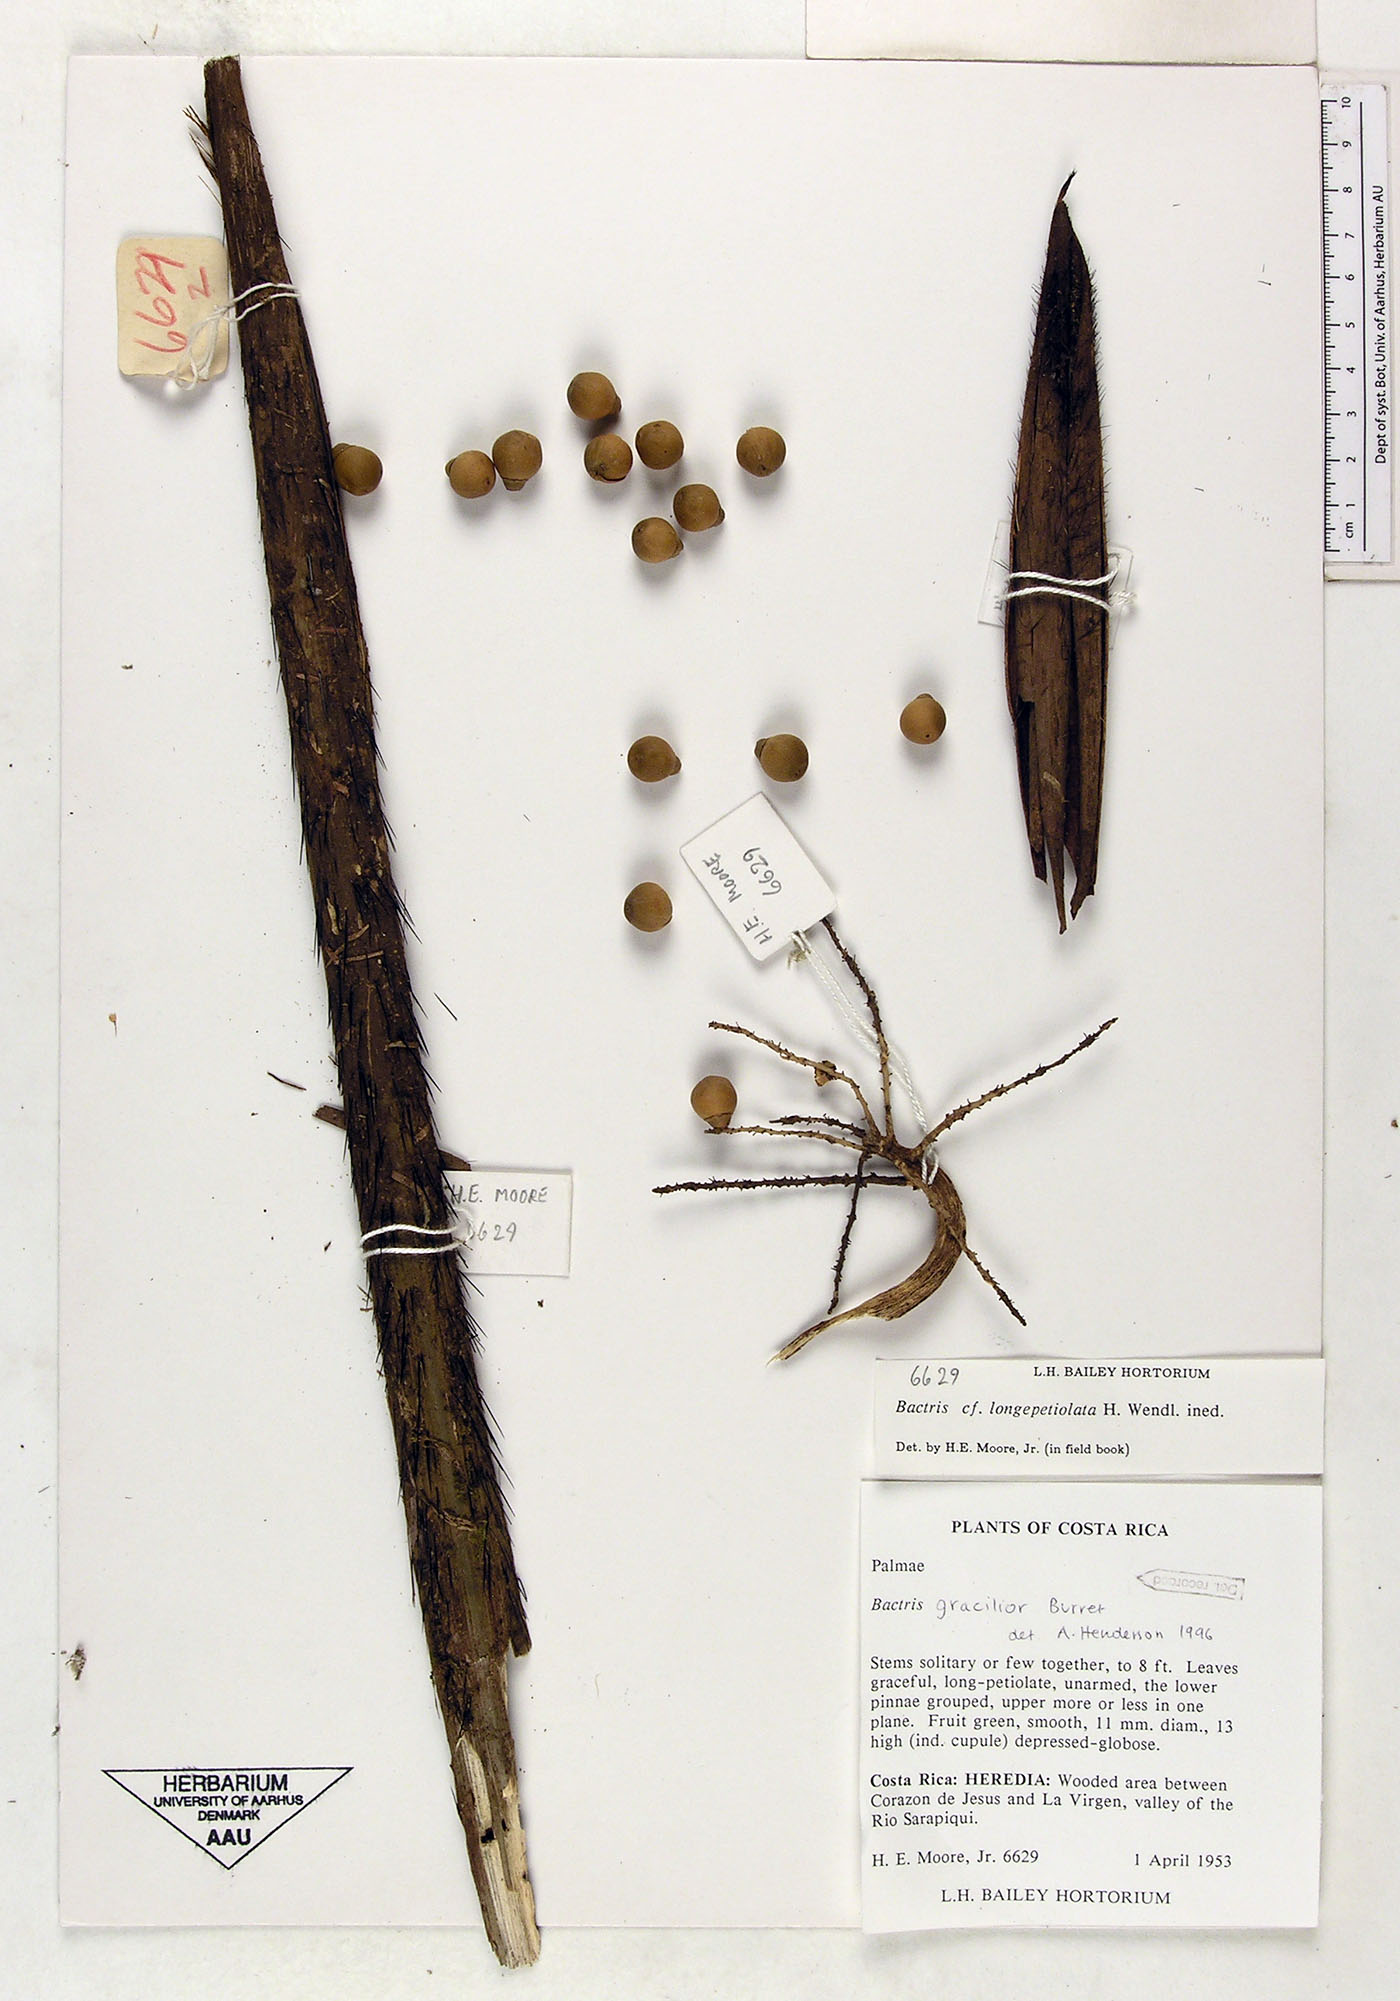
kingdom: Plantae
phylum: Tracheophyta
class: Liliopsida
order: Arecales
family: Arecaceae
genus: Bactris
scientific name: Bactris gracilior
